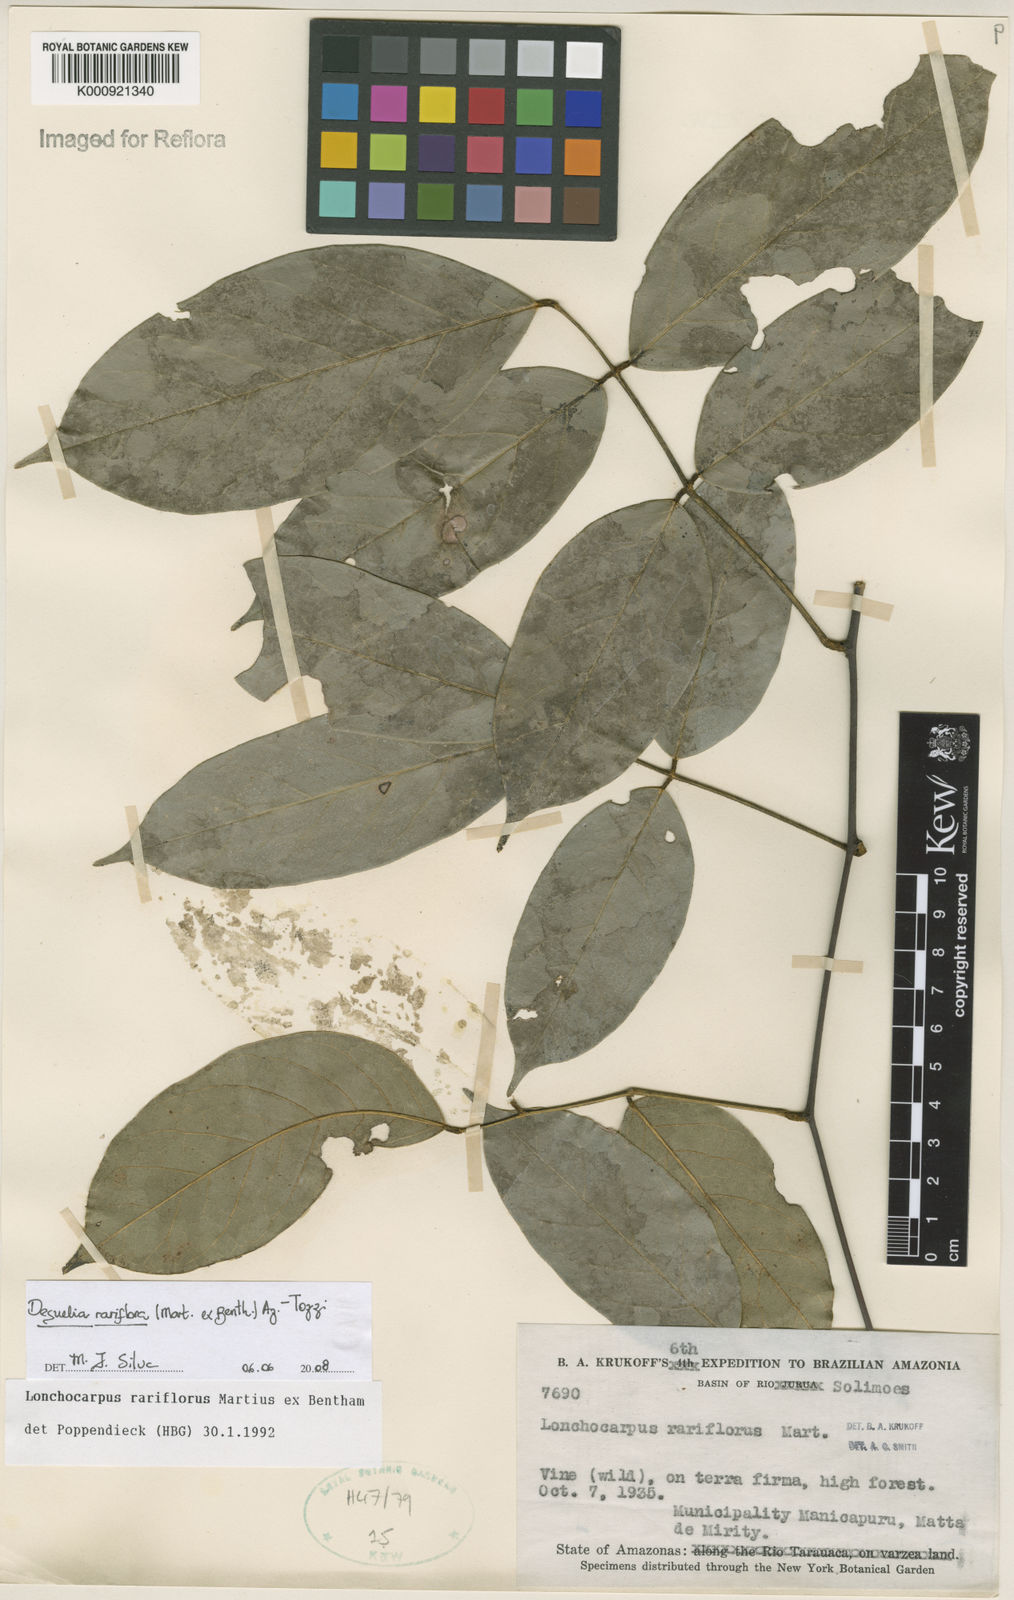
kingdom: Plantae
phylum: Tracheophyta
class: Magnoliopsida
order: Fabales
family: Fabaceae
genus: Deguelia
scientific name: Deguelia
